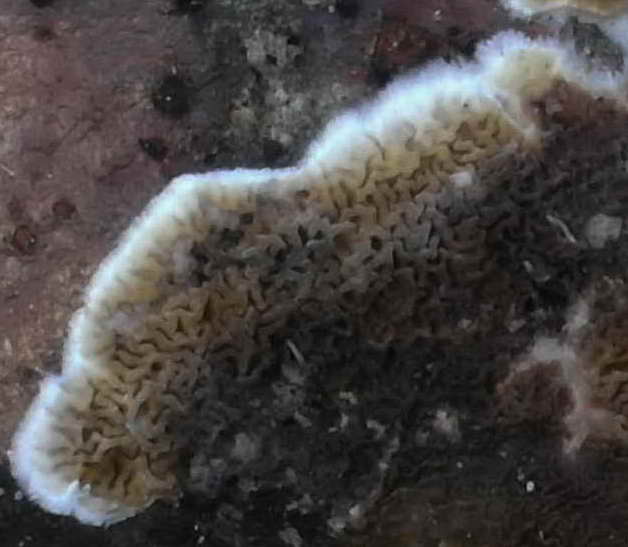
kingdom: Fungi
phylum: Basidiomycota
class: Agaricomycetes
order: Boletales
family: Serpulaceae
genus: Serpula
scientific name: Serpula himantioides
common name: tyndkødet hussvamp
